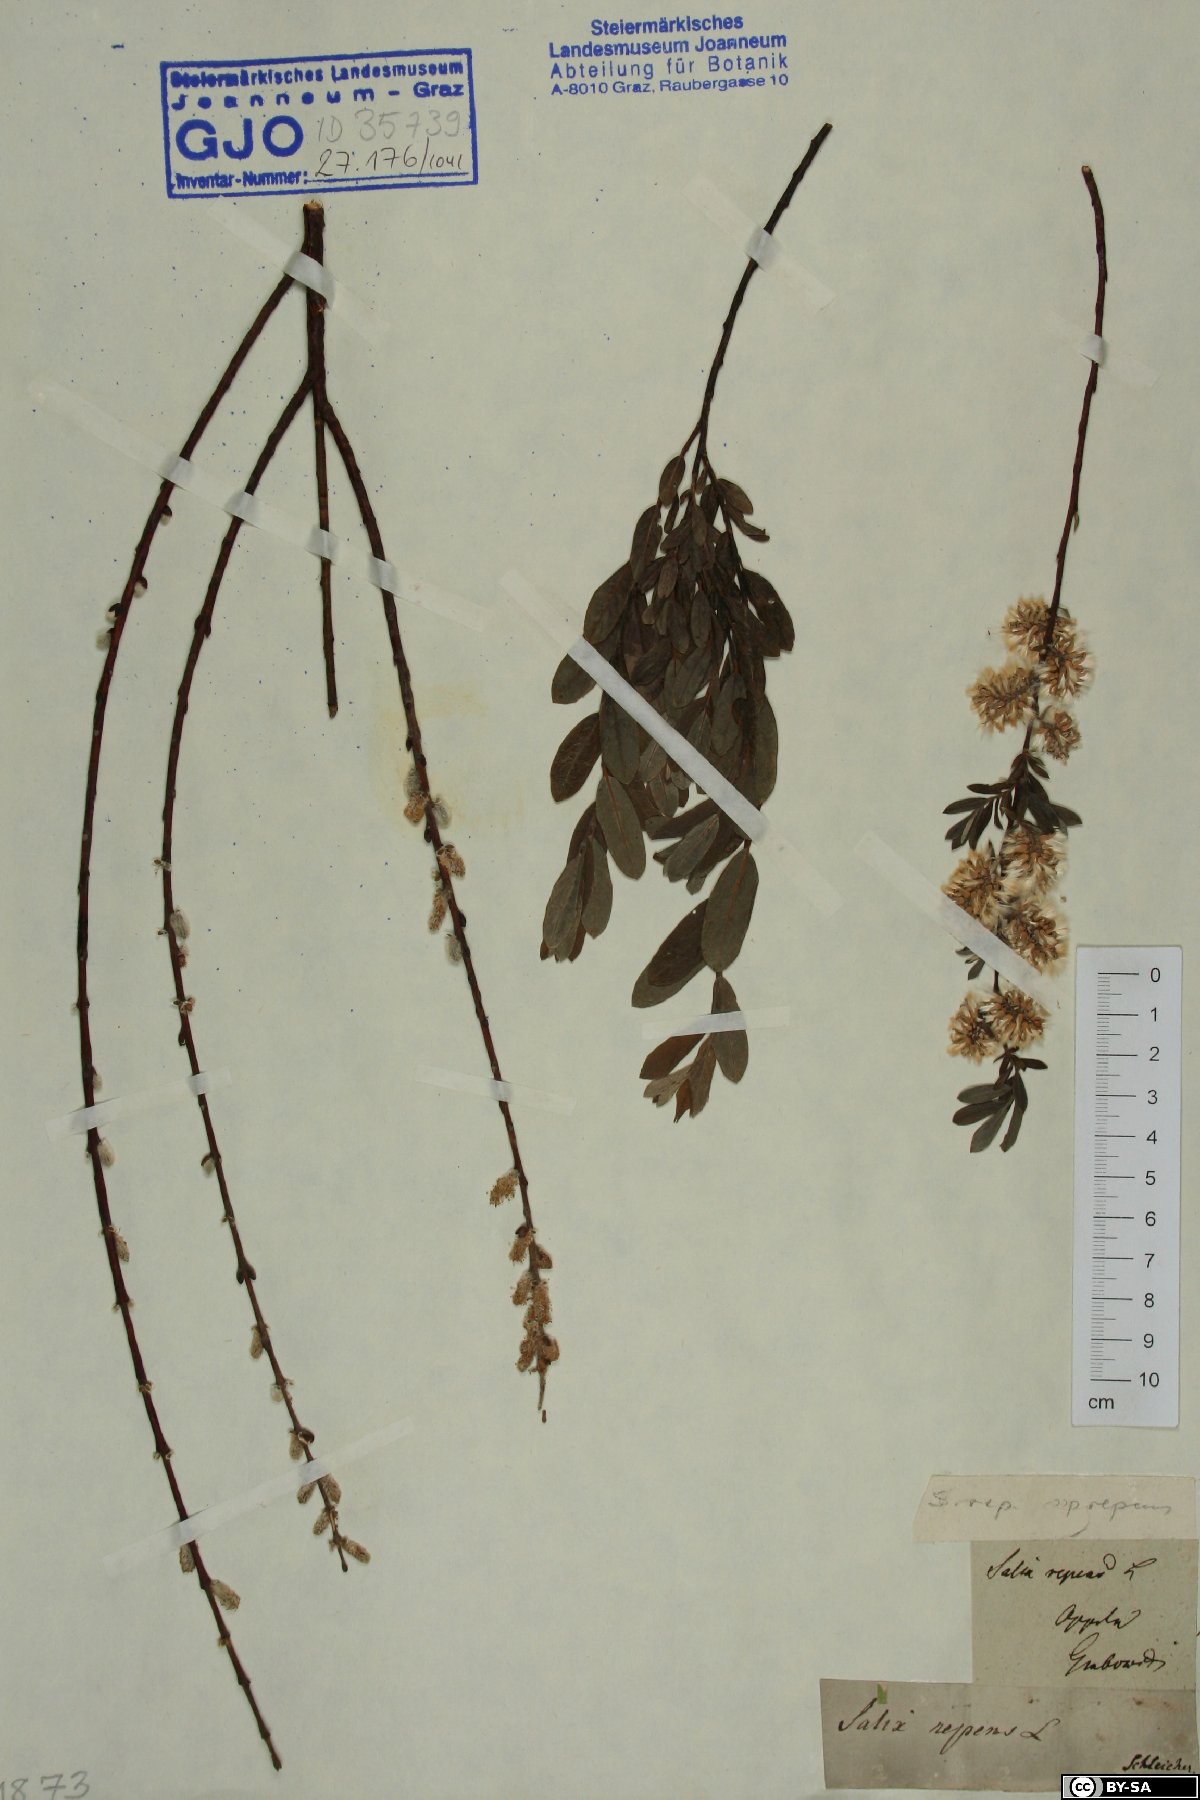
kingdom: Plantae
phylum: Tracheophyta
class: Magnoliopsida
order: Malpighiales
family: Salicaceae
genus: Salix
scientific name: Salix repens
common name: Creeping willow
